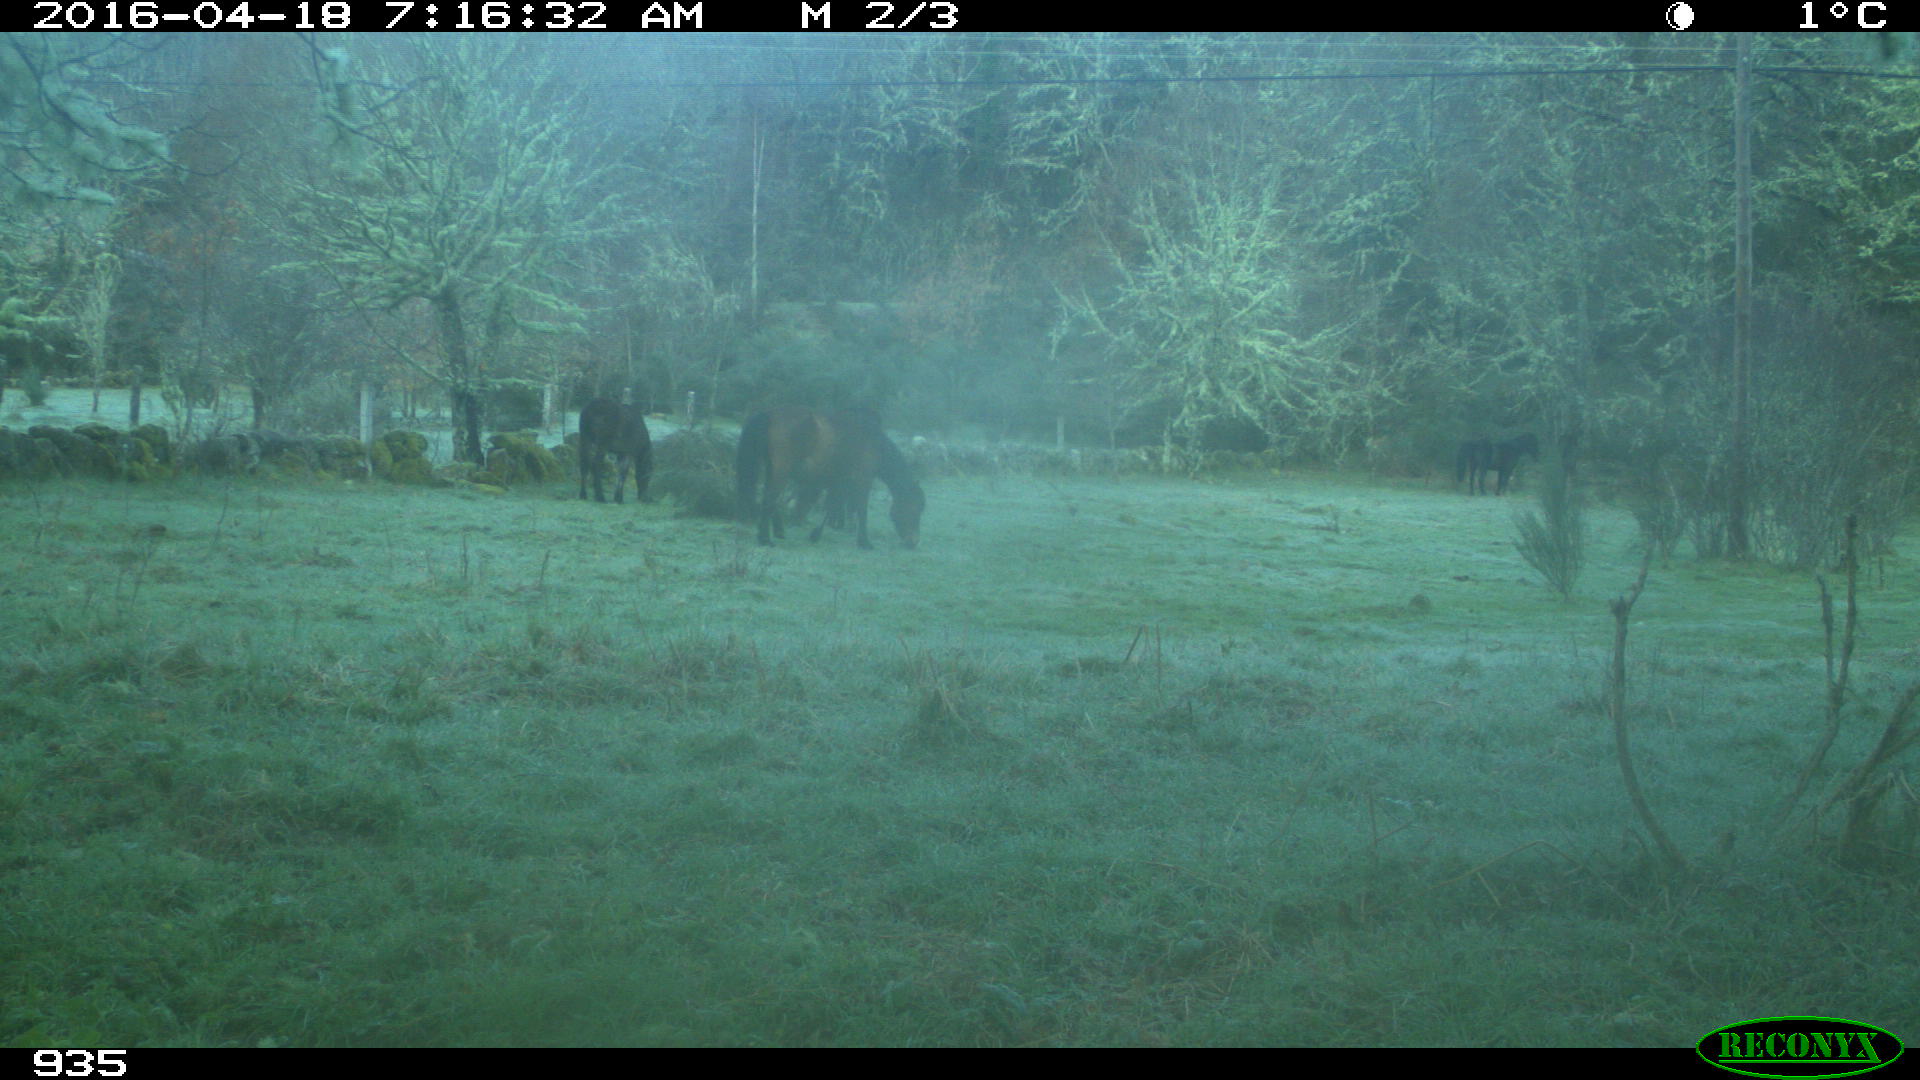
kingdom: Animalia
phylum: Chordata
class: Mammalia
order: Perissodactyla
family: Equidae
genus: Equus
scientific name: Equus caballus
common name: Horse
